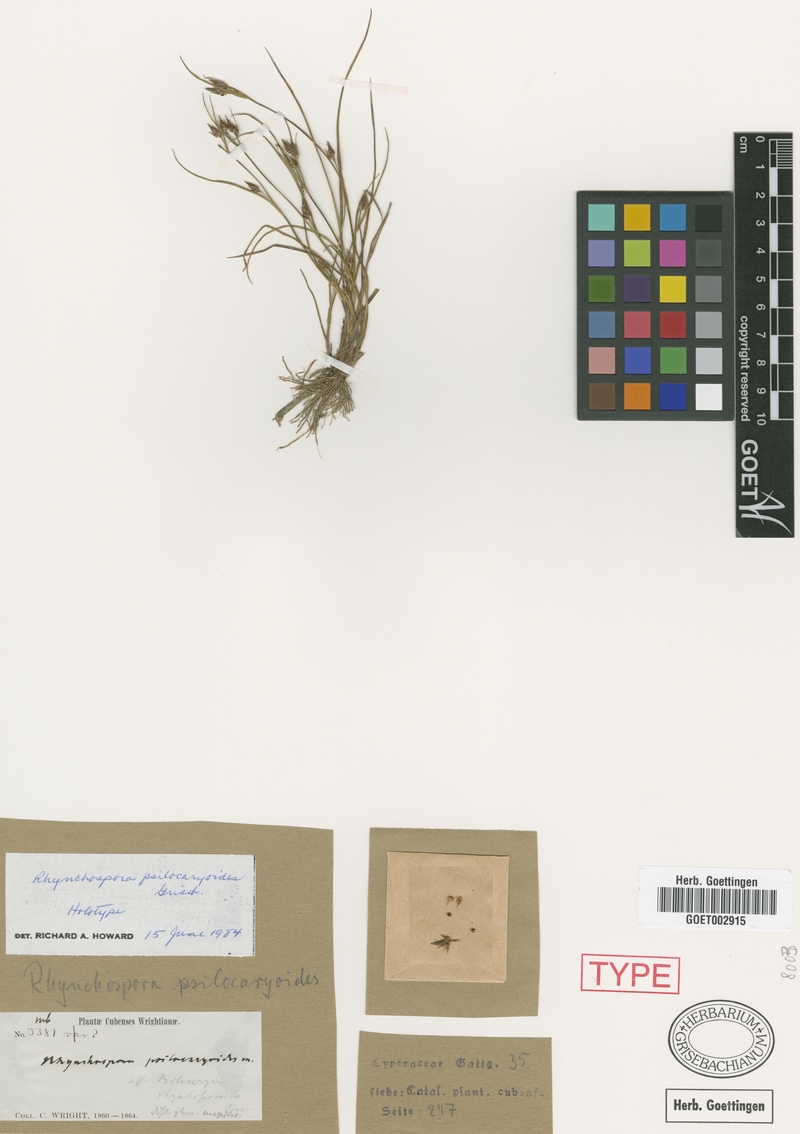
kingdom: Plantae
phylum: Tracheophyta
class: Liliopsida
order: Poales
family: Cyperaceae
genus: Rhynchospora
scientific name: Rhynchospora eximia
